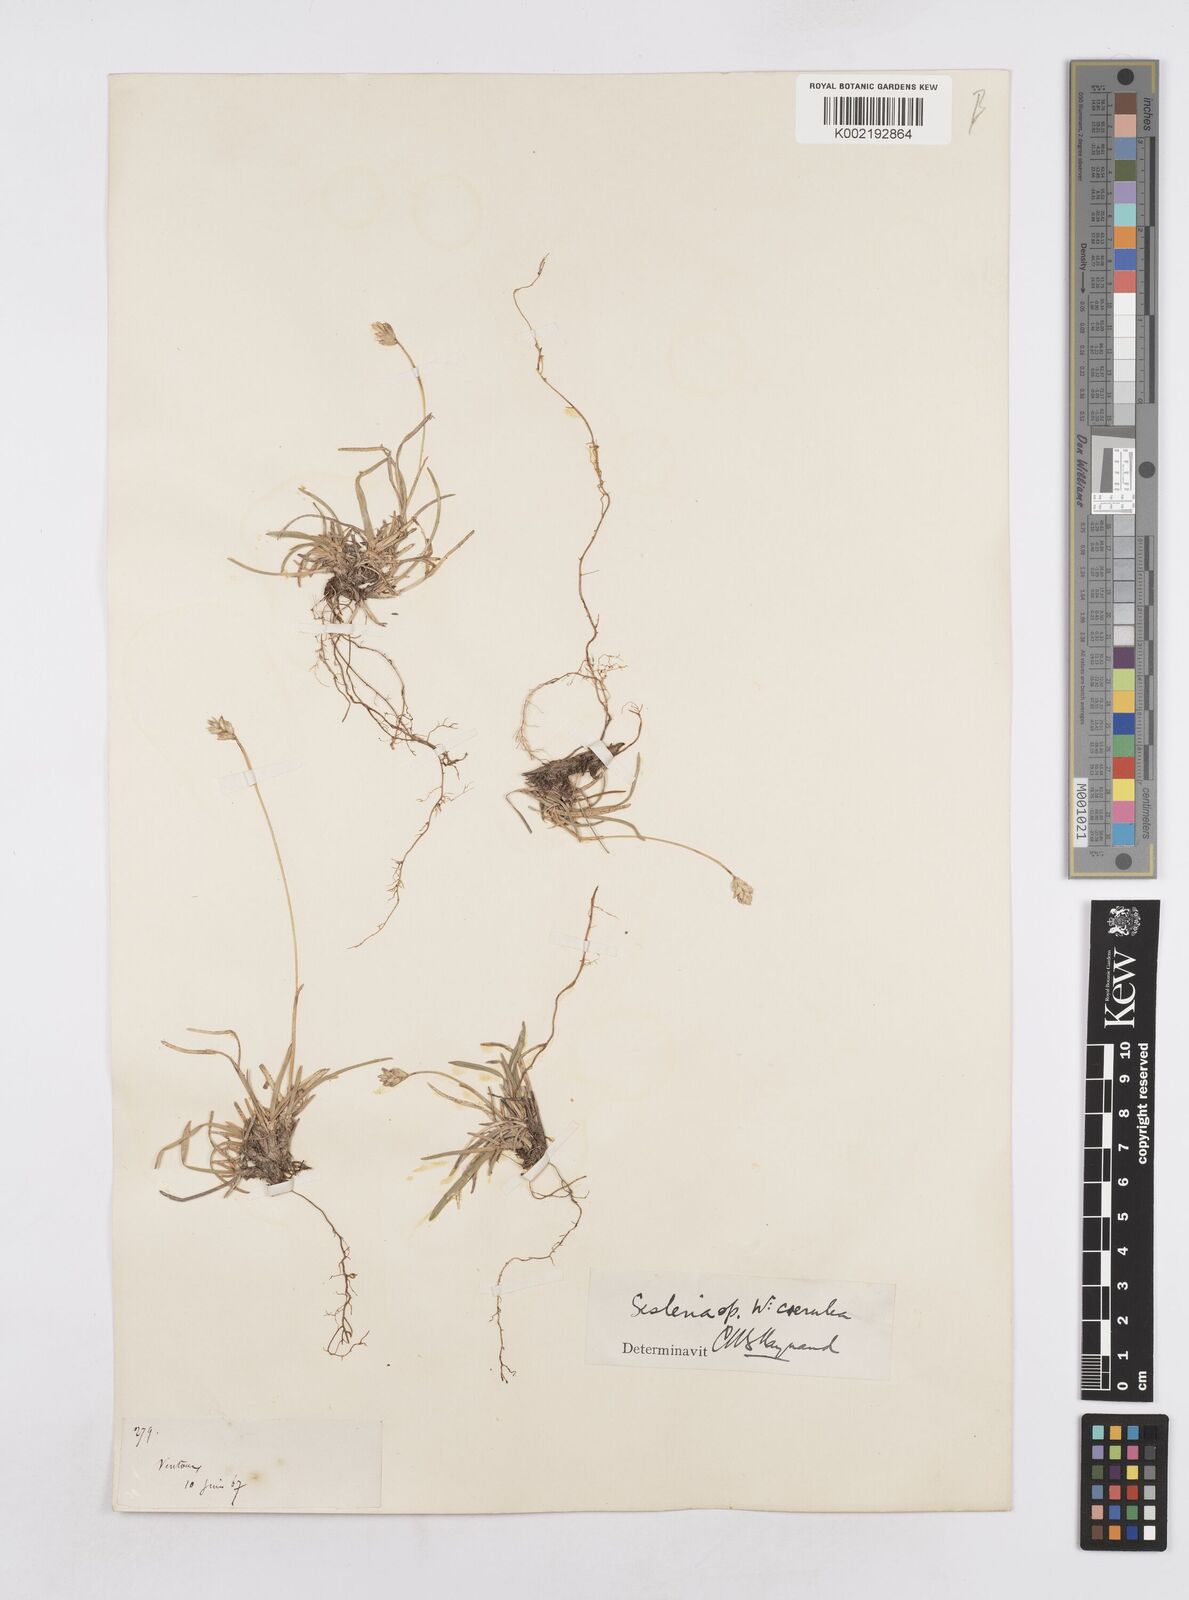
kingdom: Plantae
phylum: Tracheophyta
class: Liliopsida
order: Poales
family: Poaceae
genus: Sesleria
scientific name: Sesleria albicans
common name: Blue moor-grass
